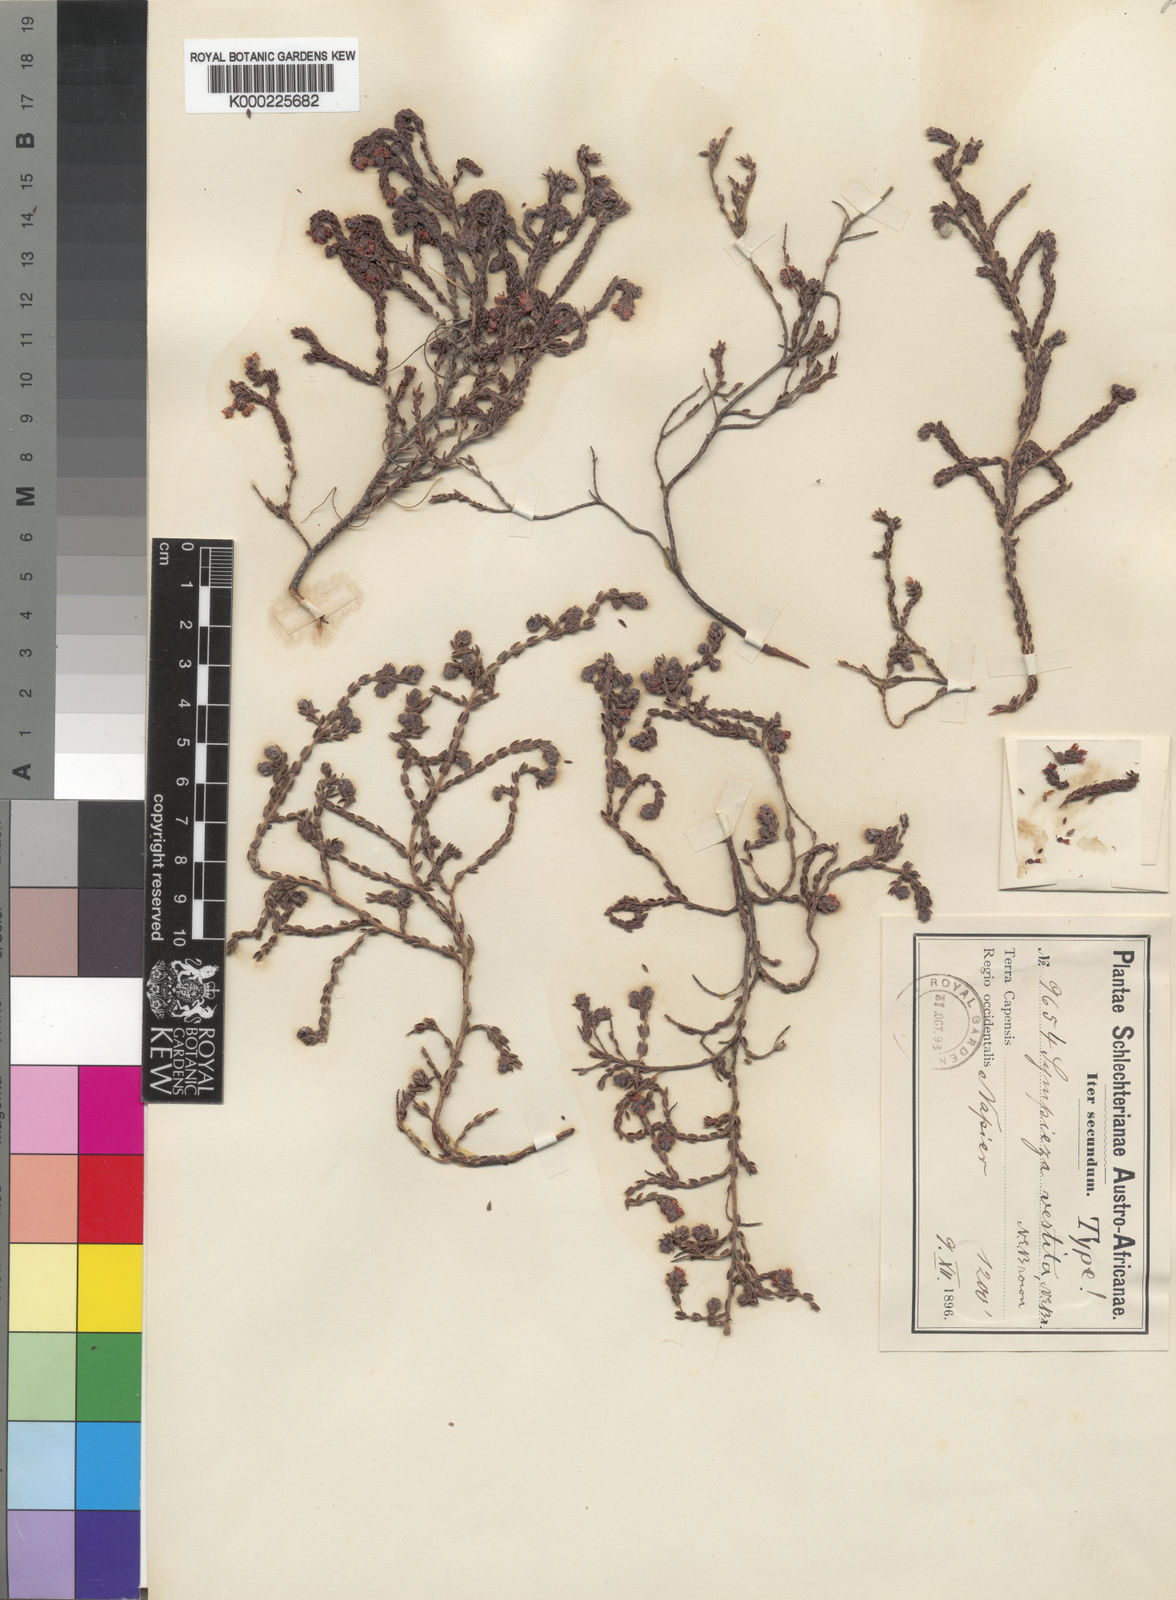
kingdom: Plantae
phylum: Tracheophyta
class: Magnoliopsida
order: Ericales
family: Ericaceae
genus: Erica
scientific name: Erica labialis
